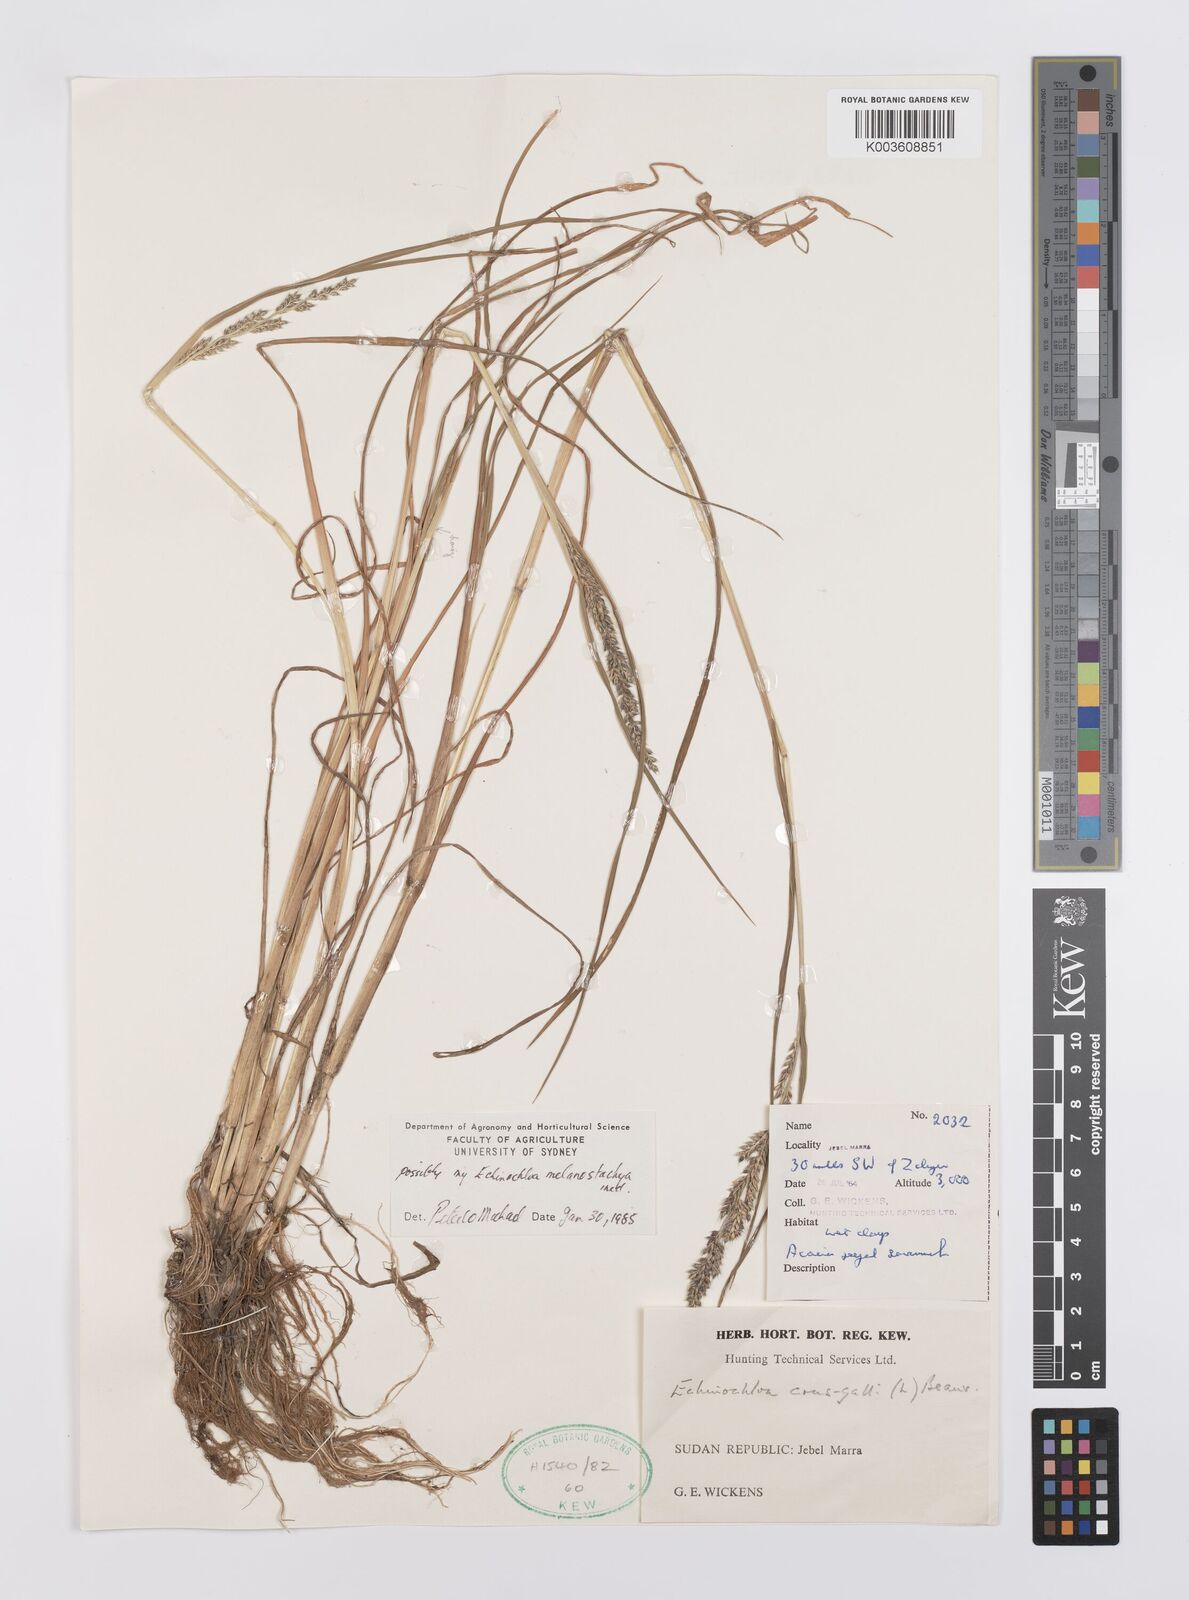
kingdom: Plantae
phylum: Tracheophyta
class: Liliopsida
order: Poales
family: Poaceae
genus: Echinochloa
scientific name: Echinochloa
